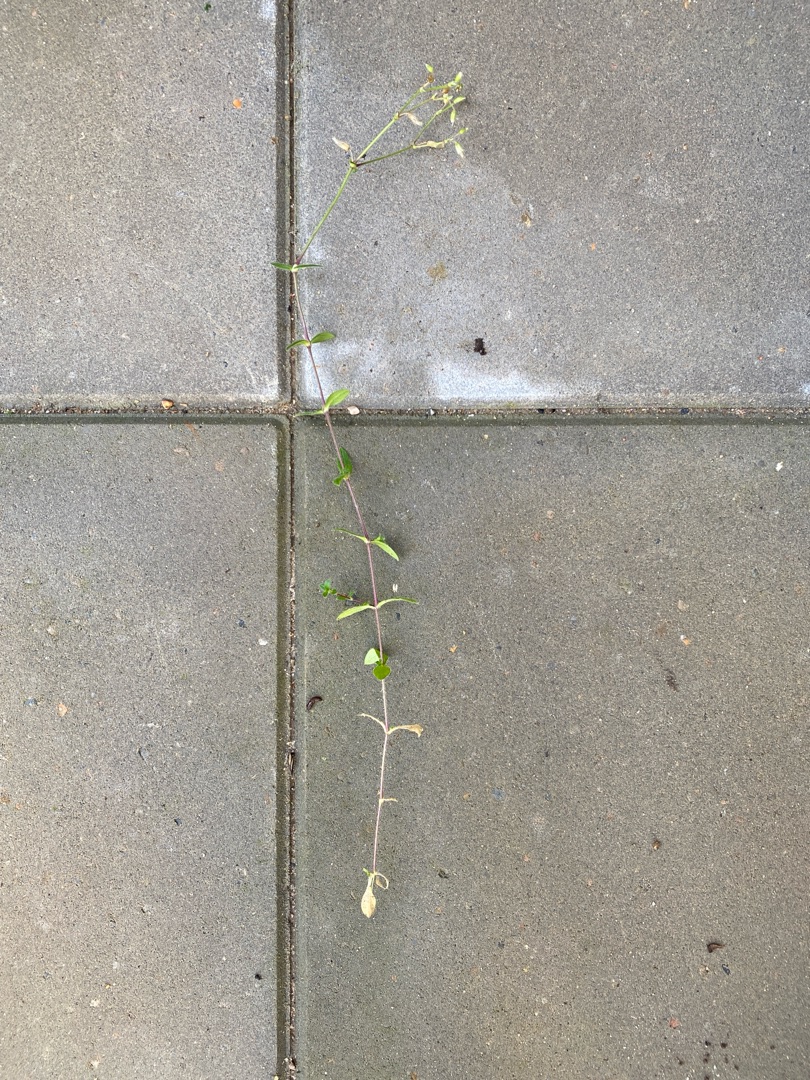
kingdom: Plantae
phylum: Tracheophyta
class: Magnoliopsida
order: Caryophyllales
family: Caryophyllaceae
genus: Cerastium
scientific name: Cerastium fontanum
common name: Almindelig hønsetarm
